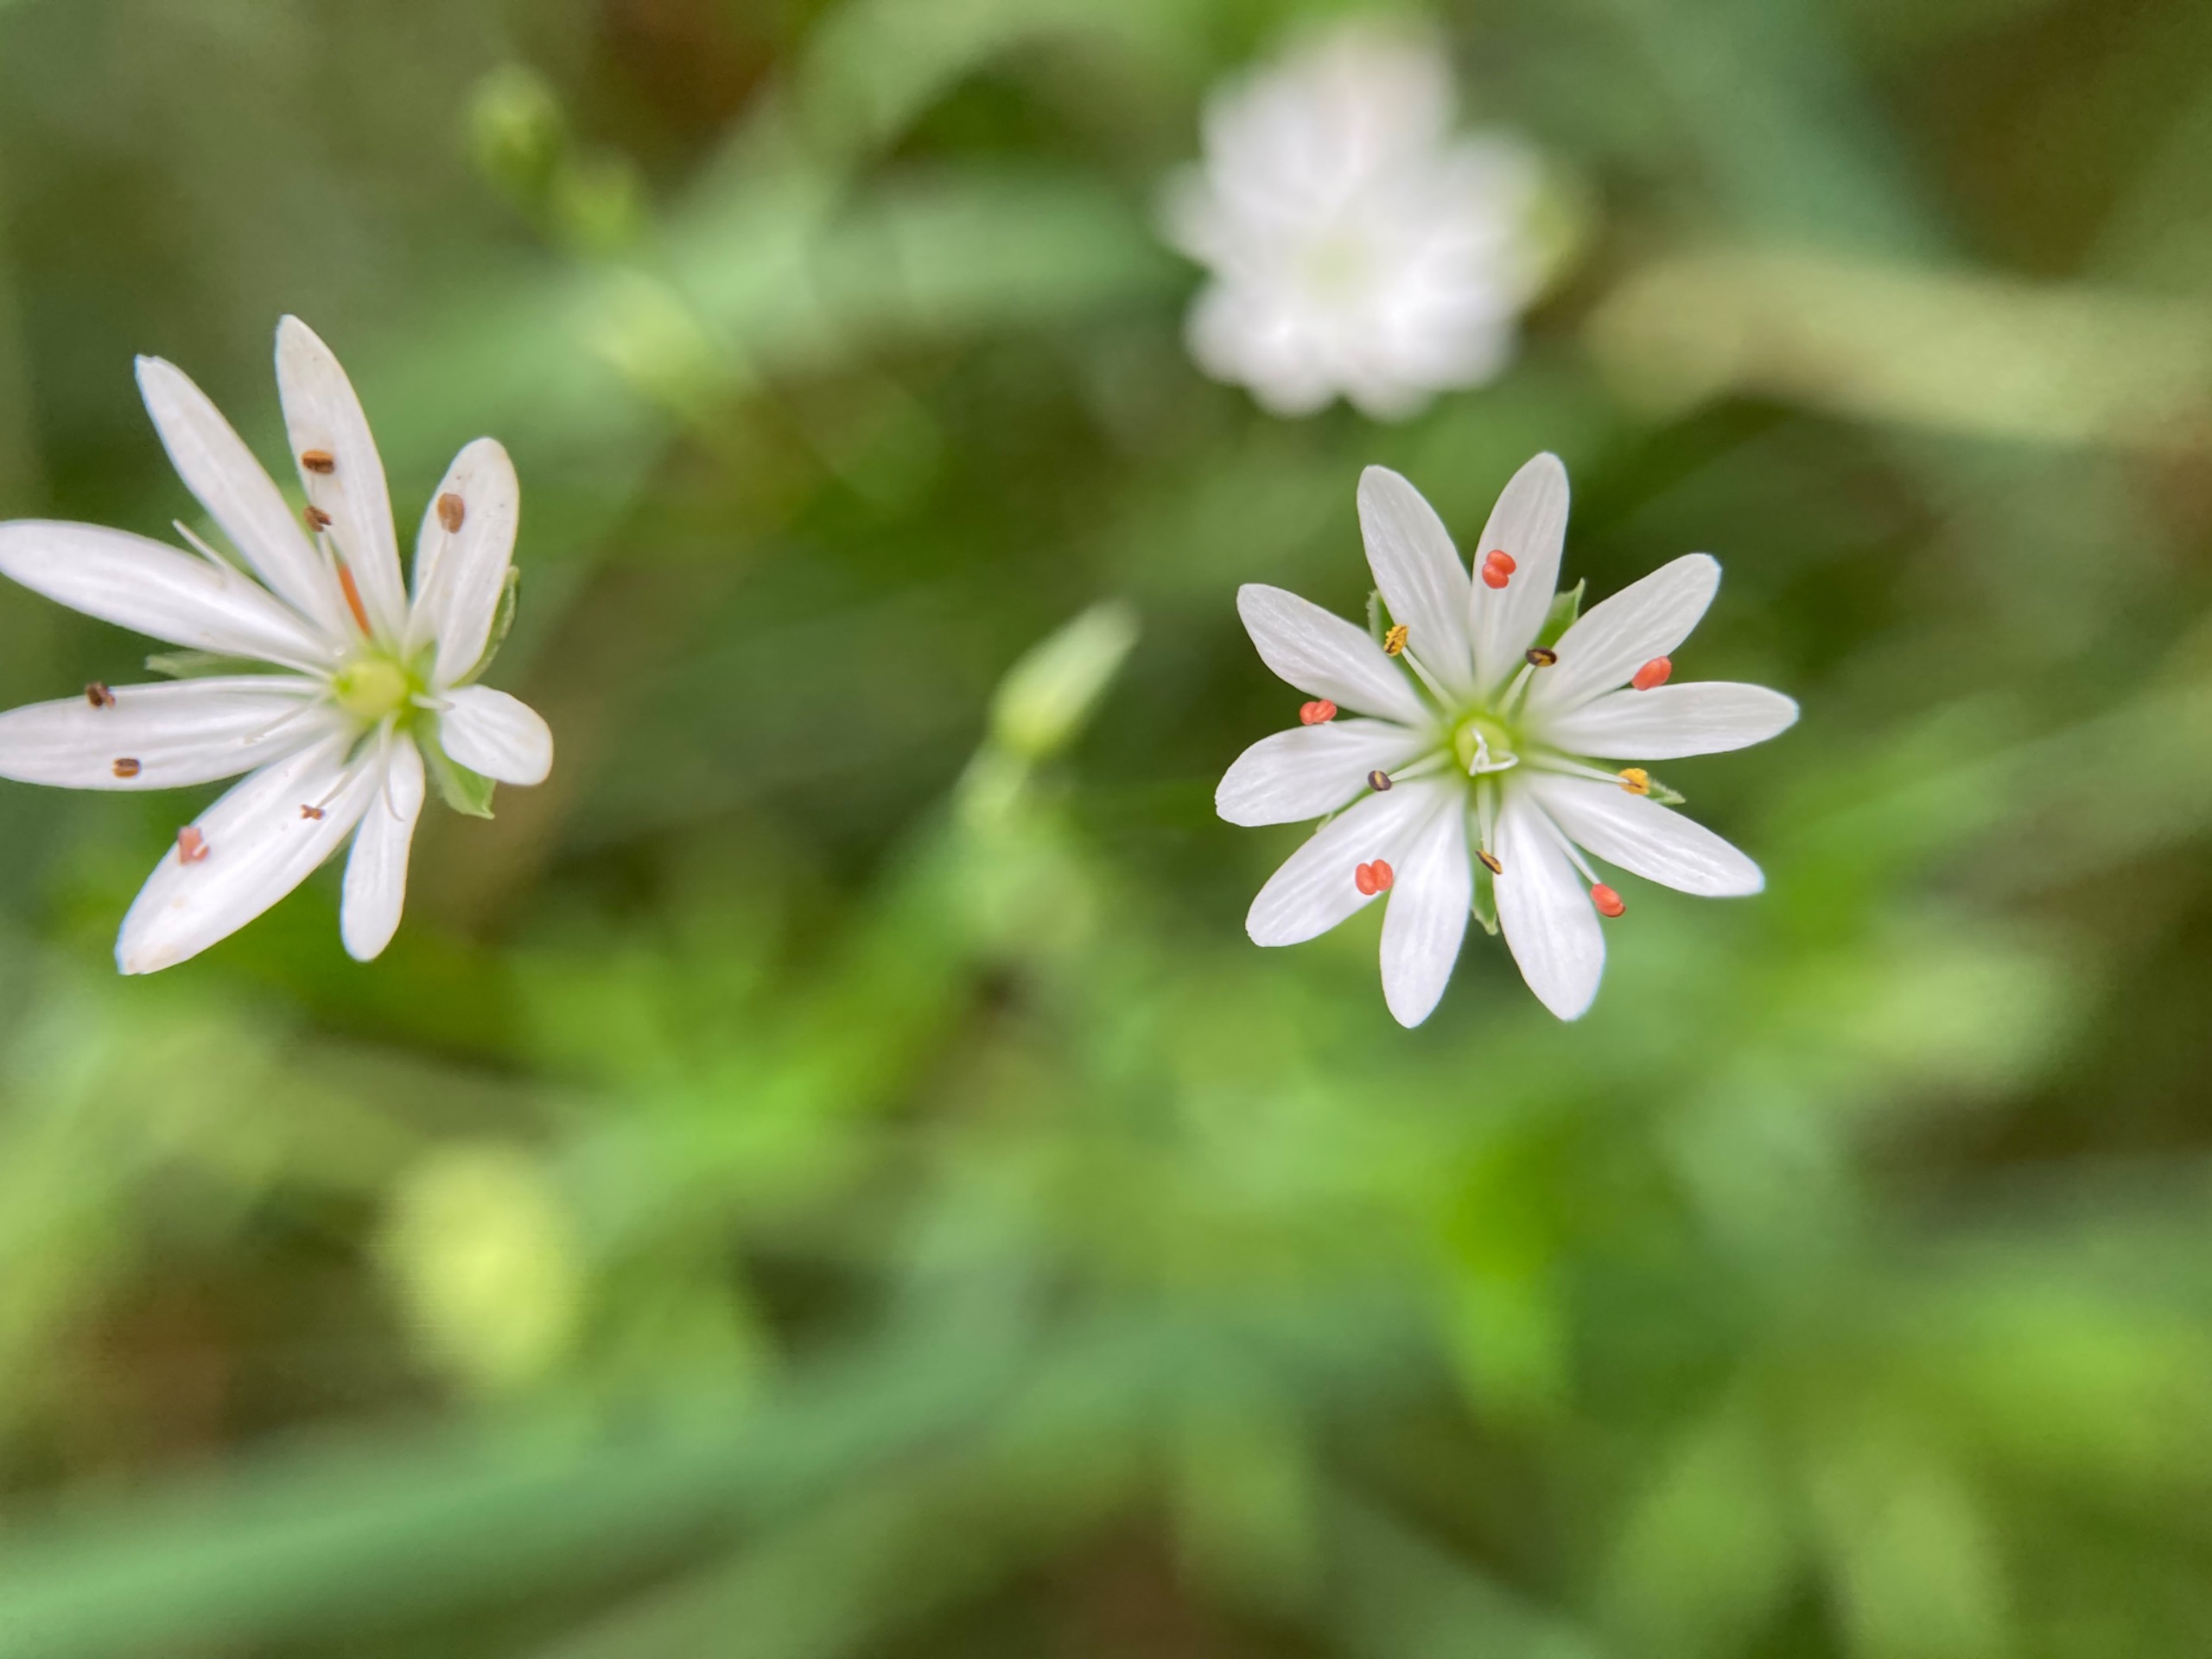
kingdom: Plantae
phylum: Tracheophyta
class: Magnoliopsida
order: Caryophyllales
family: Caryophyllaceae
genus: Stellaria
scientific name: Stellaria graminea
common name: Græsbladet fladstjerne
